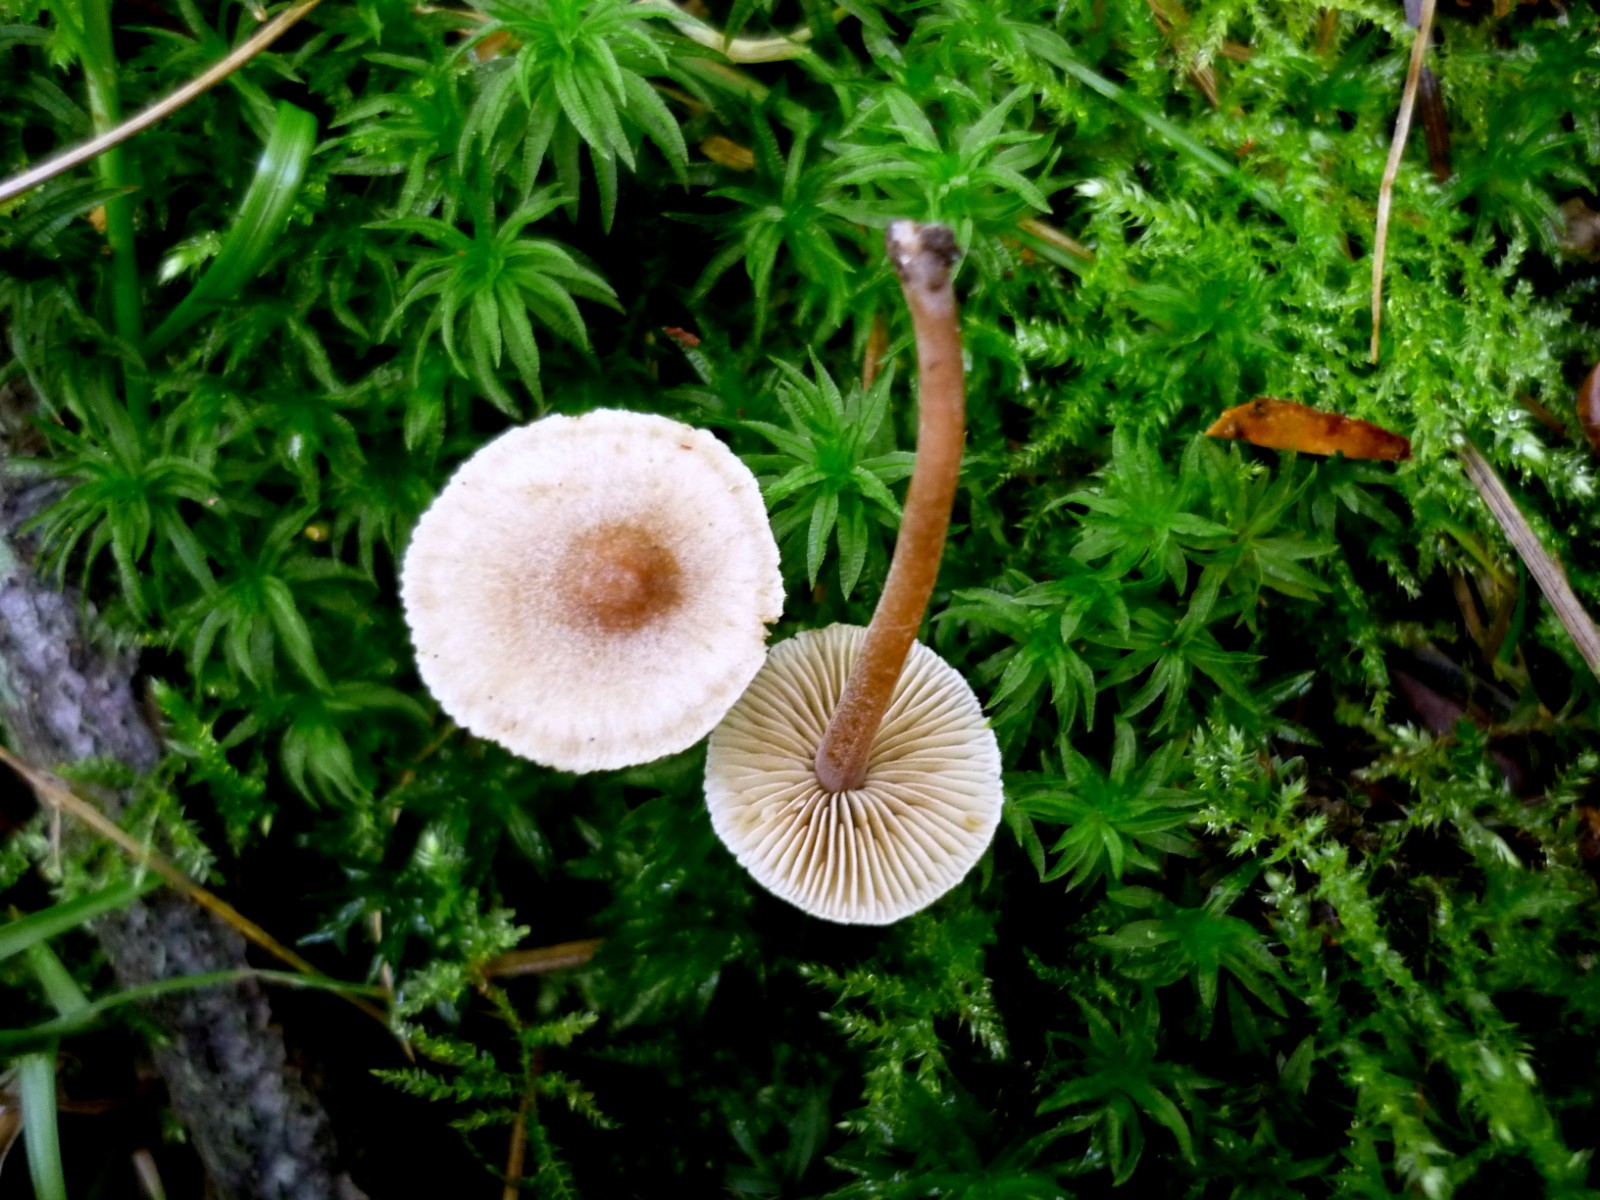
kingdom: Fungi
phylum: Basidiomycota
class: Agaricomycetes
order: Agaricales
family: Inocybaceae
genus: Inocybe
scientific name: Inocybe petiginosa
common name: liden trævlhat
